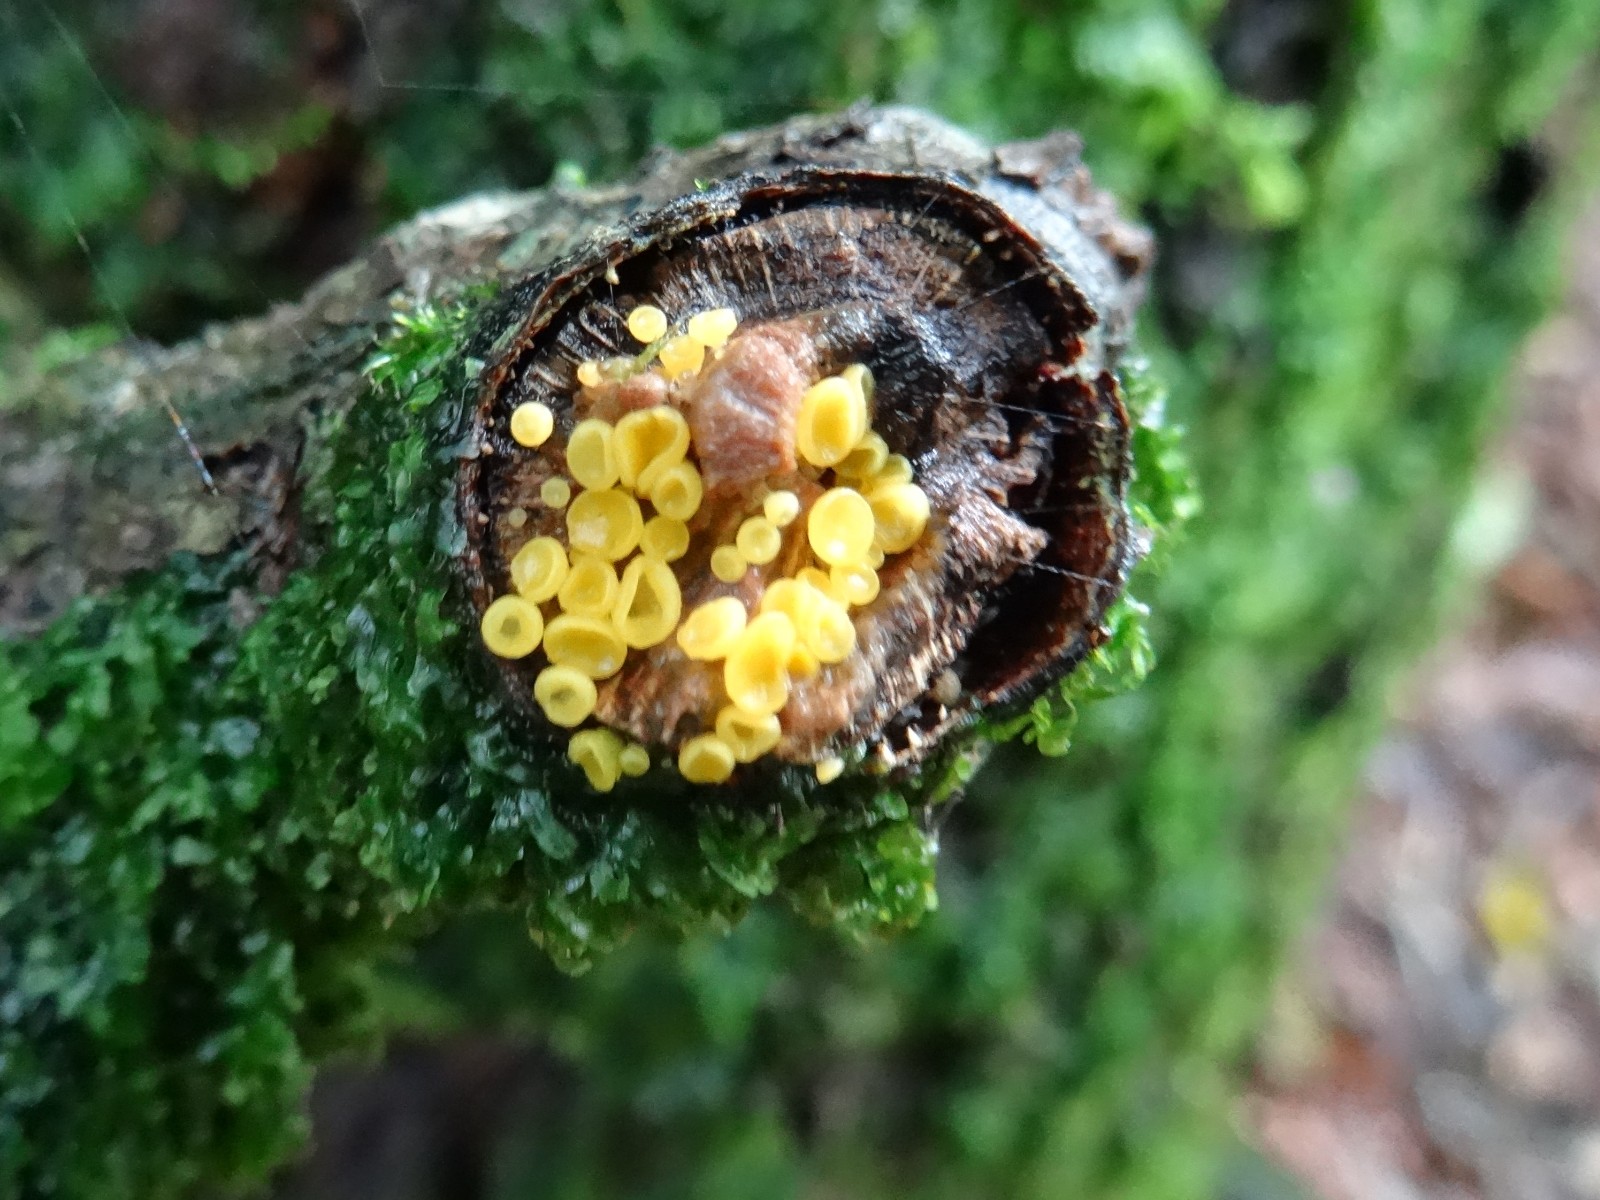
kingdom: Fungi
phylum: Ascomycota
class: Leotiomycetes
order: Helotiales
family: Pezizellaceae
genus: Calycina
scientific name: Calycina citrina
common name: almindelig gulskive
